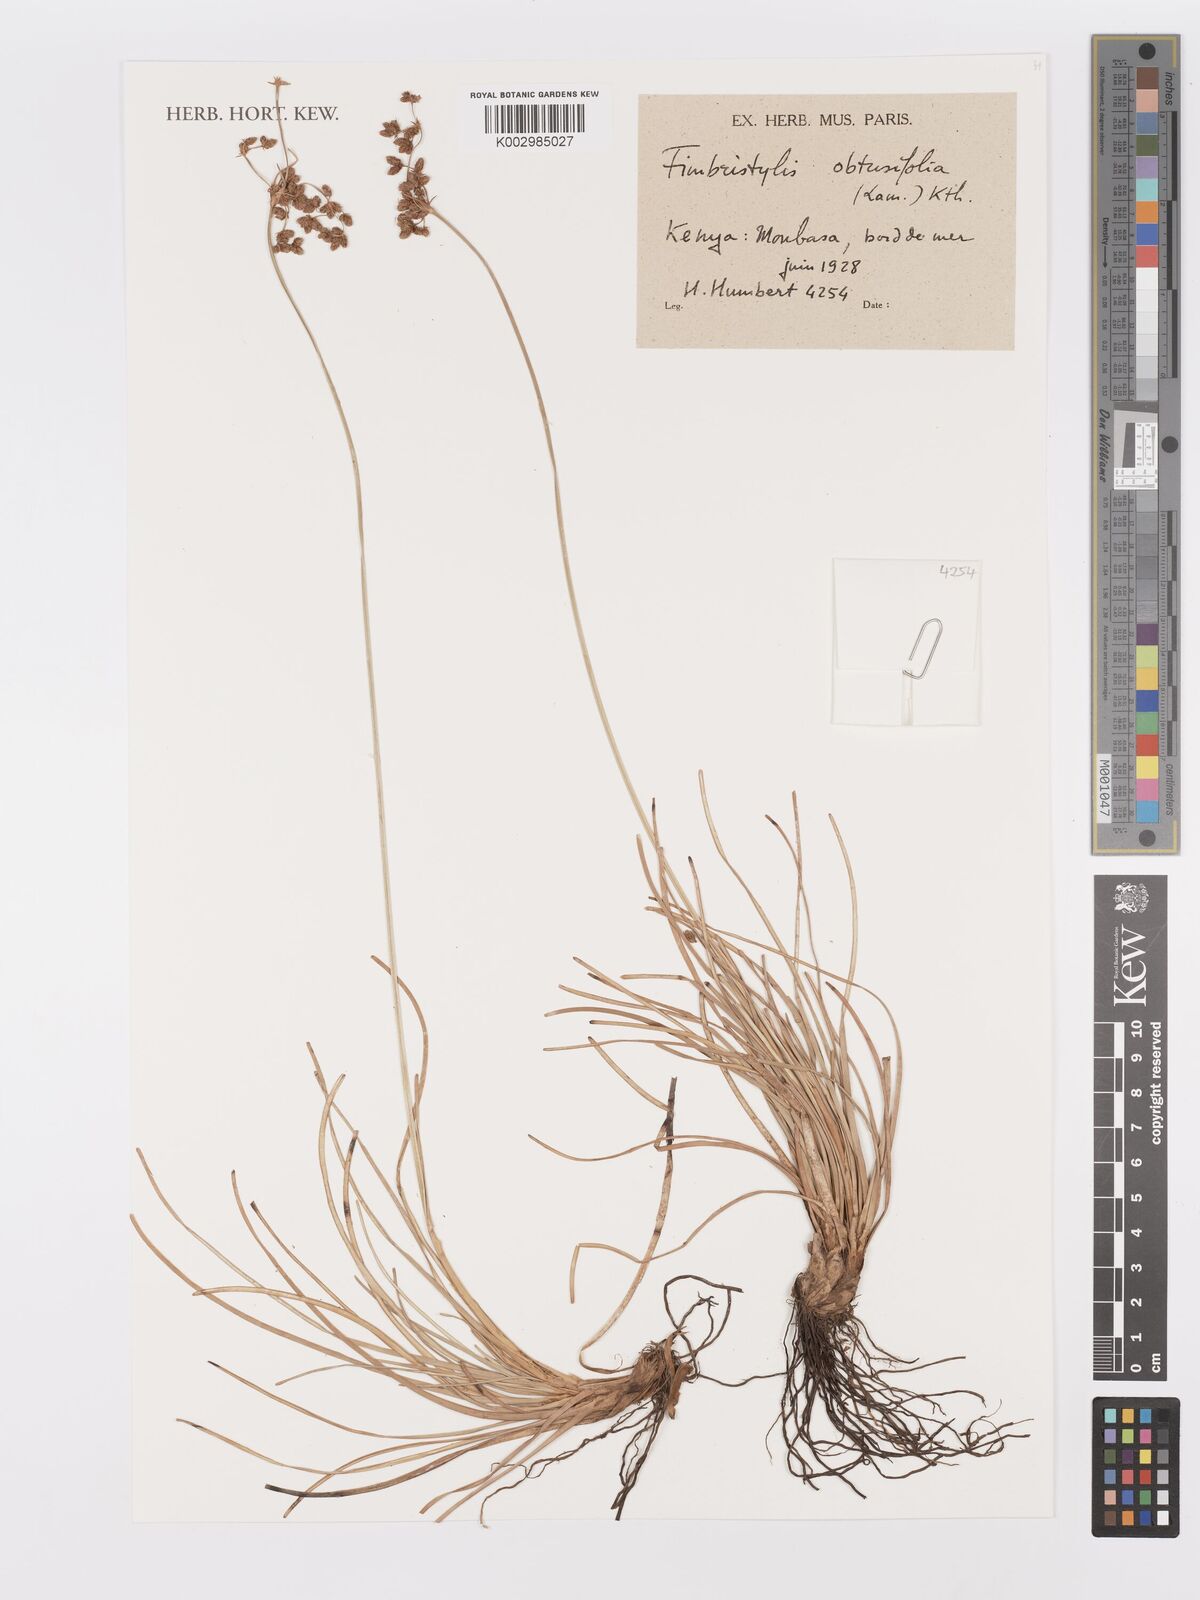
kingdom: Plantae
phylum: Tracheophyta
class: Liliopsida
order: Poales
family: Cyperaceae
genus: Fimbristylis
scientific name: Fimbristylis cymosa
